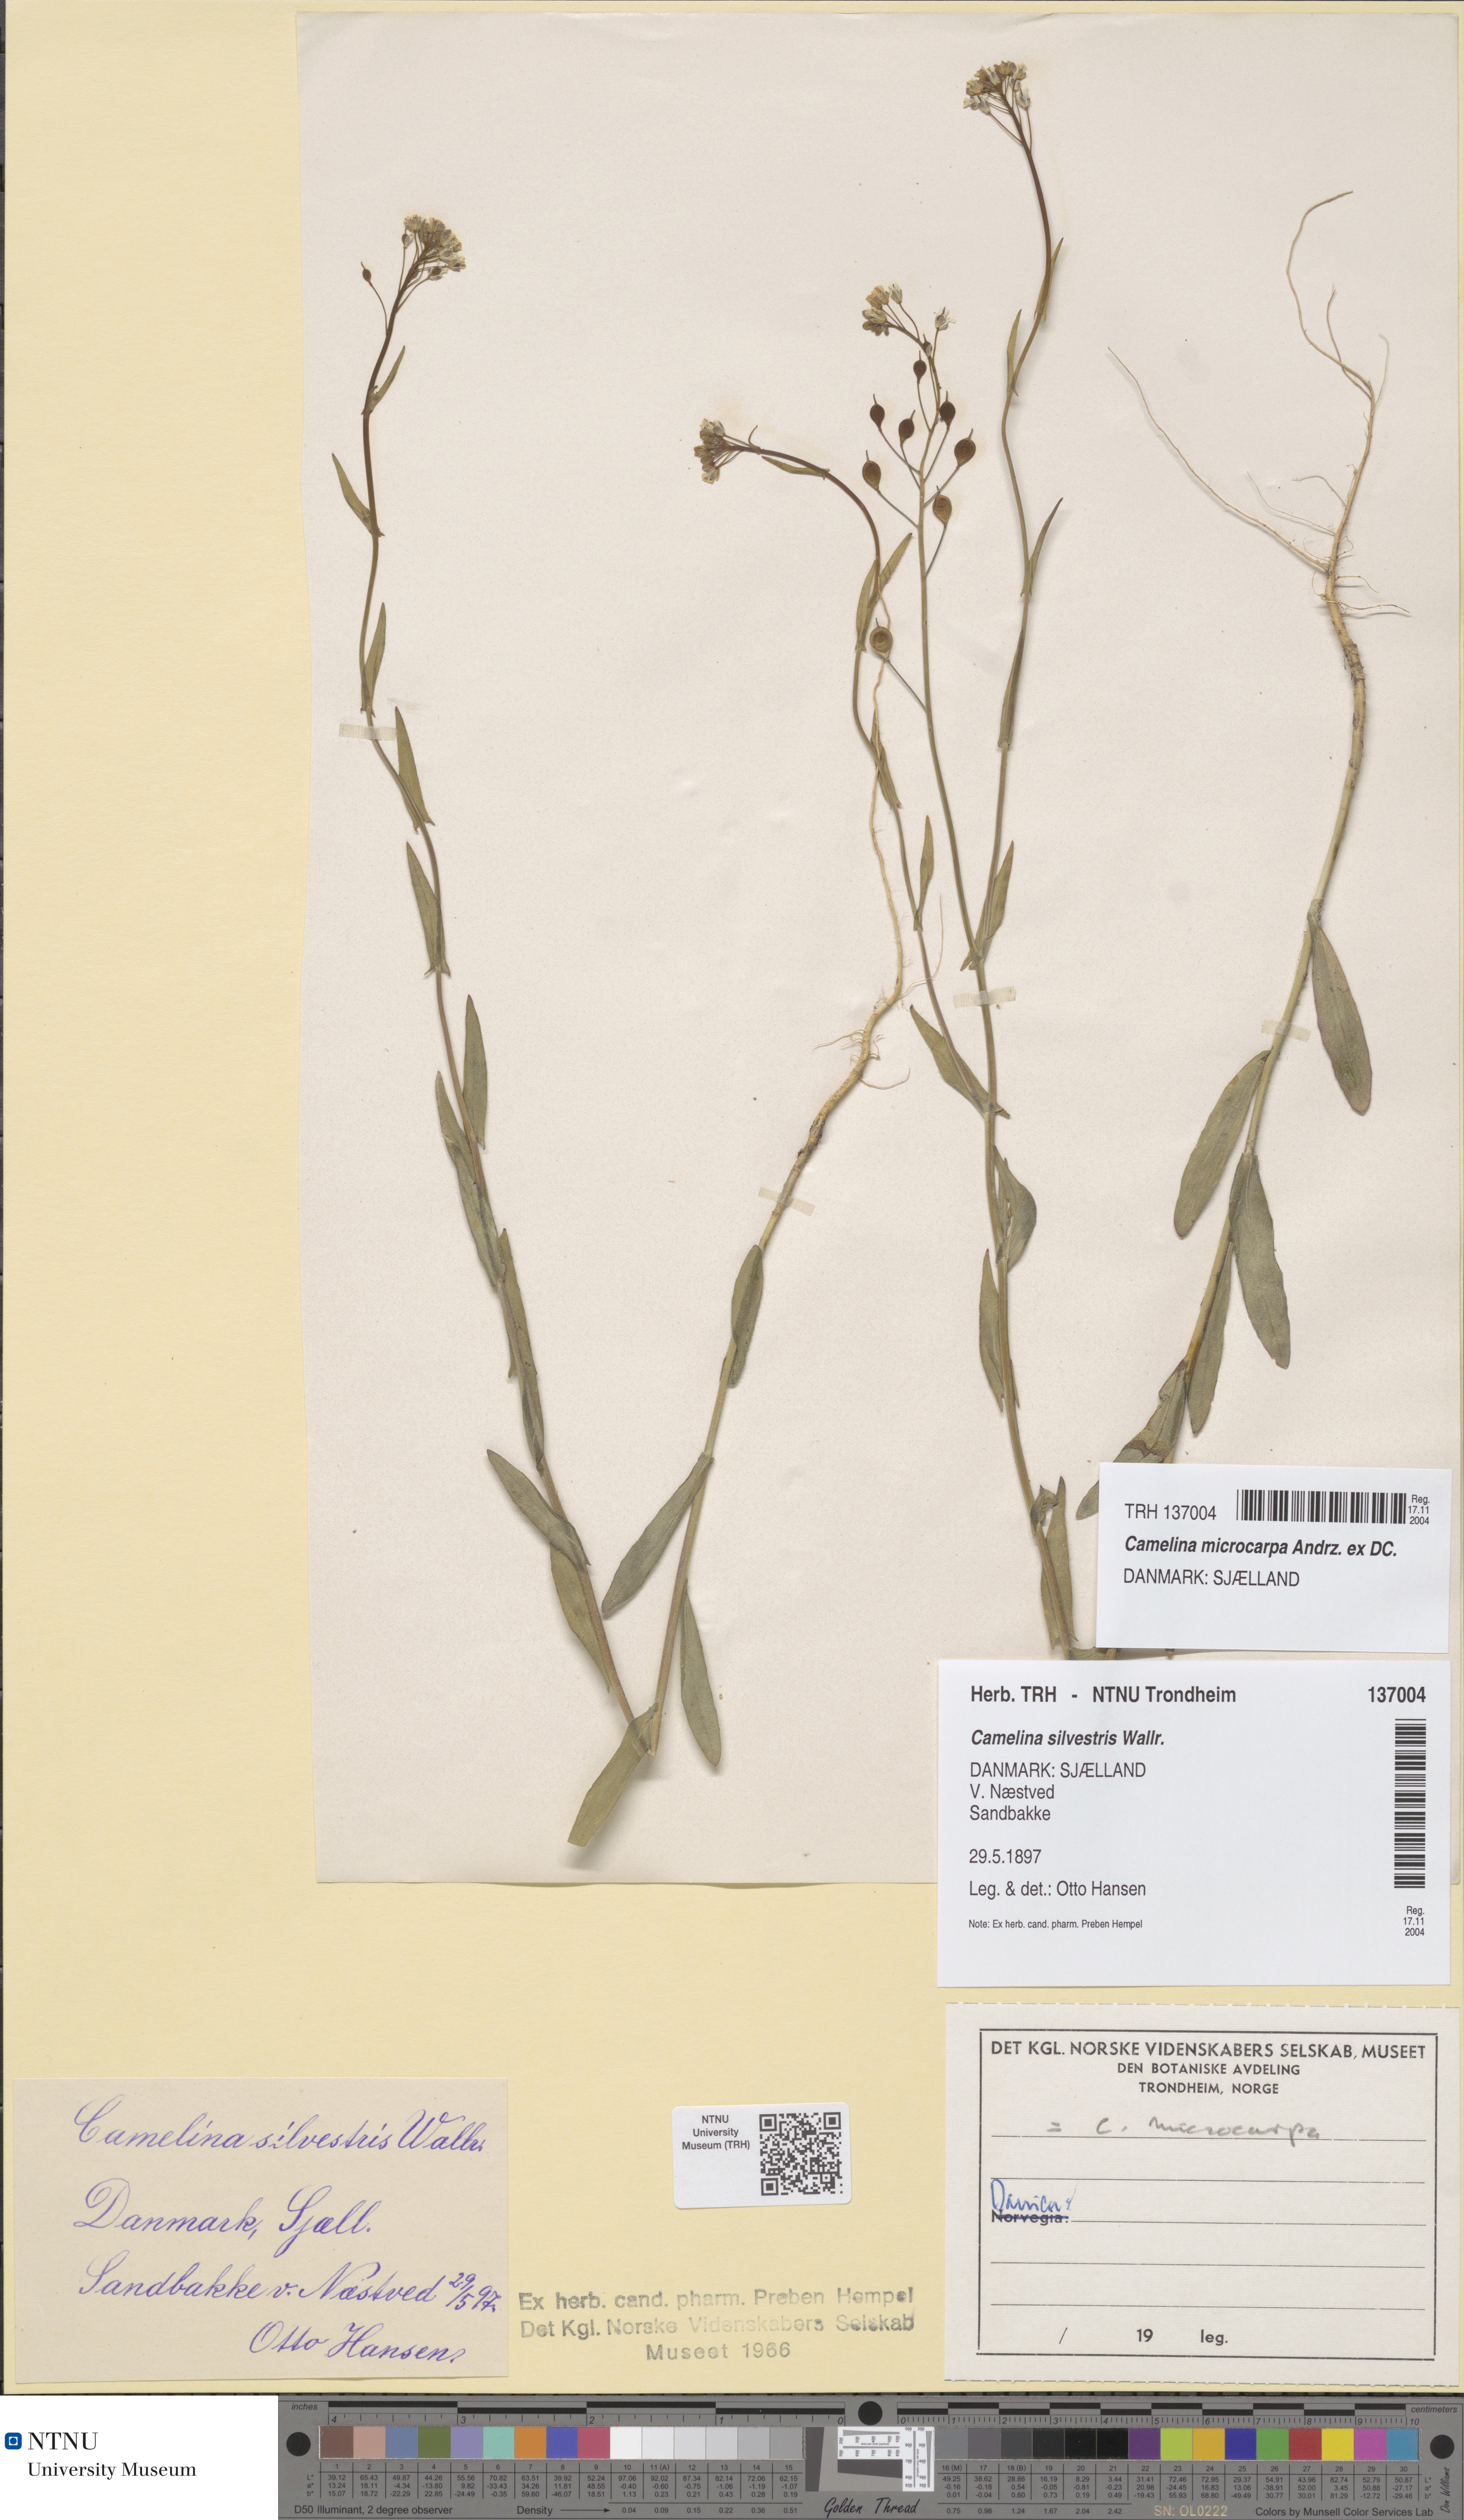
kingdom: Plantae
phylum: Tracheophyta
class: Magnoliopsida
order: Brassicales
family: Brassicaceae
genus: Camelina
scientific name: Camelina sativa
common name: Gold-of-pleasure
